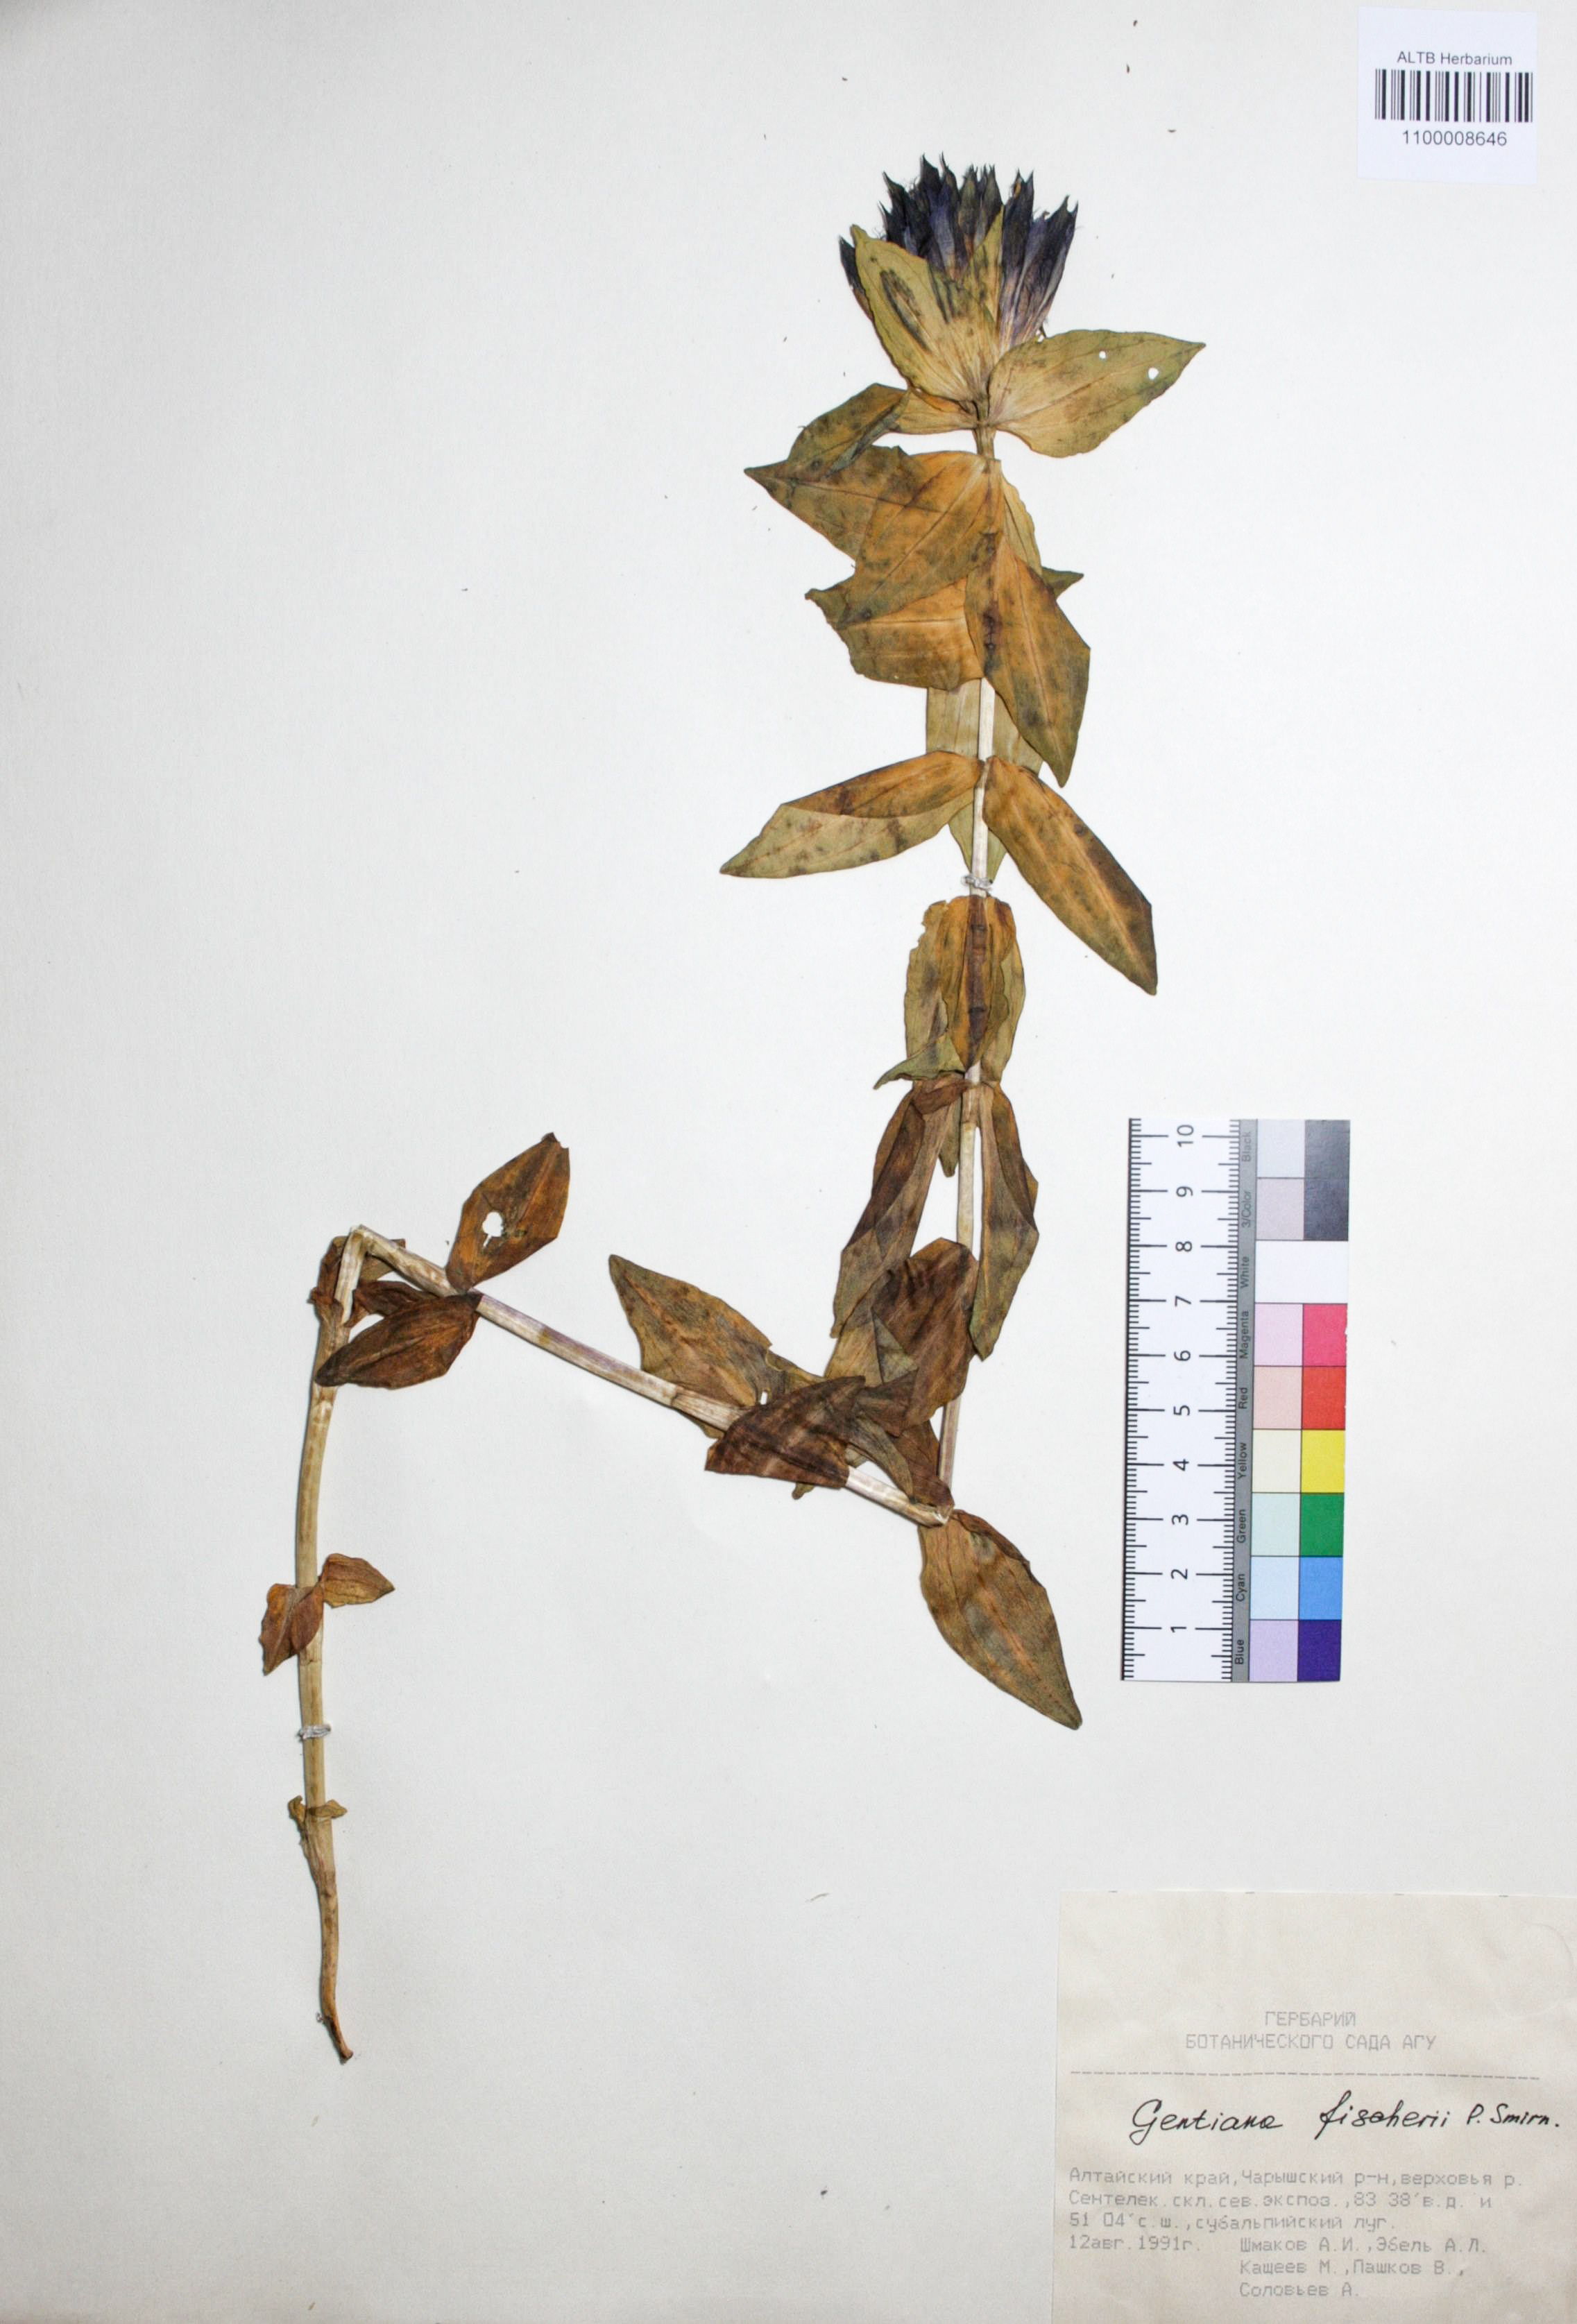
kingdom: Plantae
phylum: Tracheophyta
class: Magnoliopsida
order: Gentianales
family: Gentianaceae
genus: Gentiana
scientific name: Gentiana dschungarica
